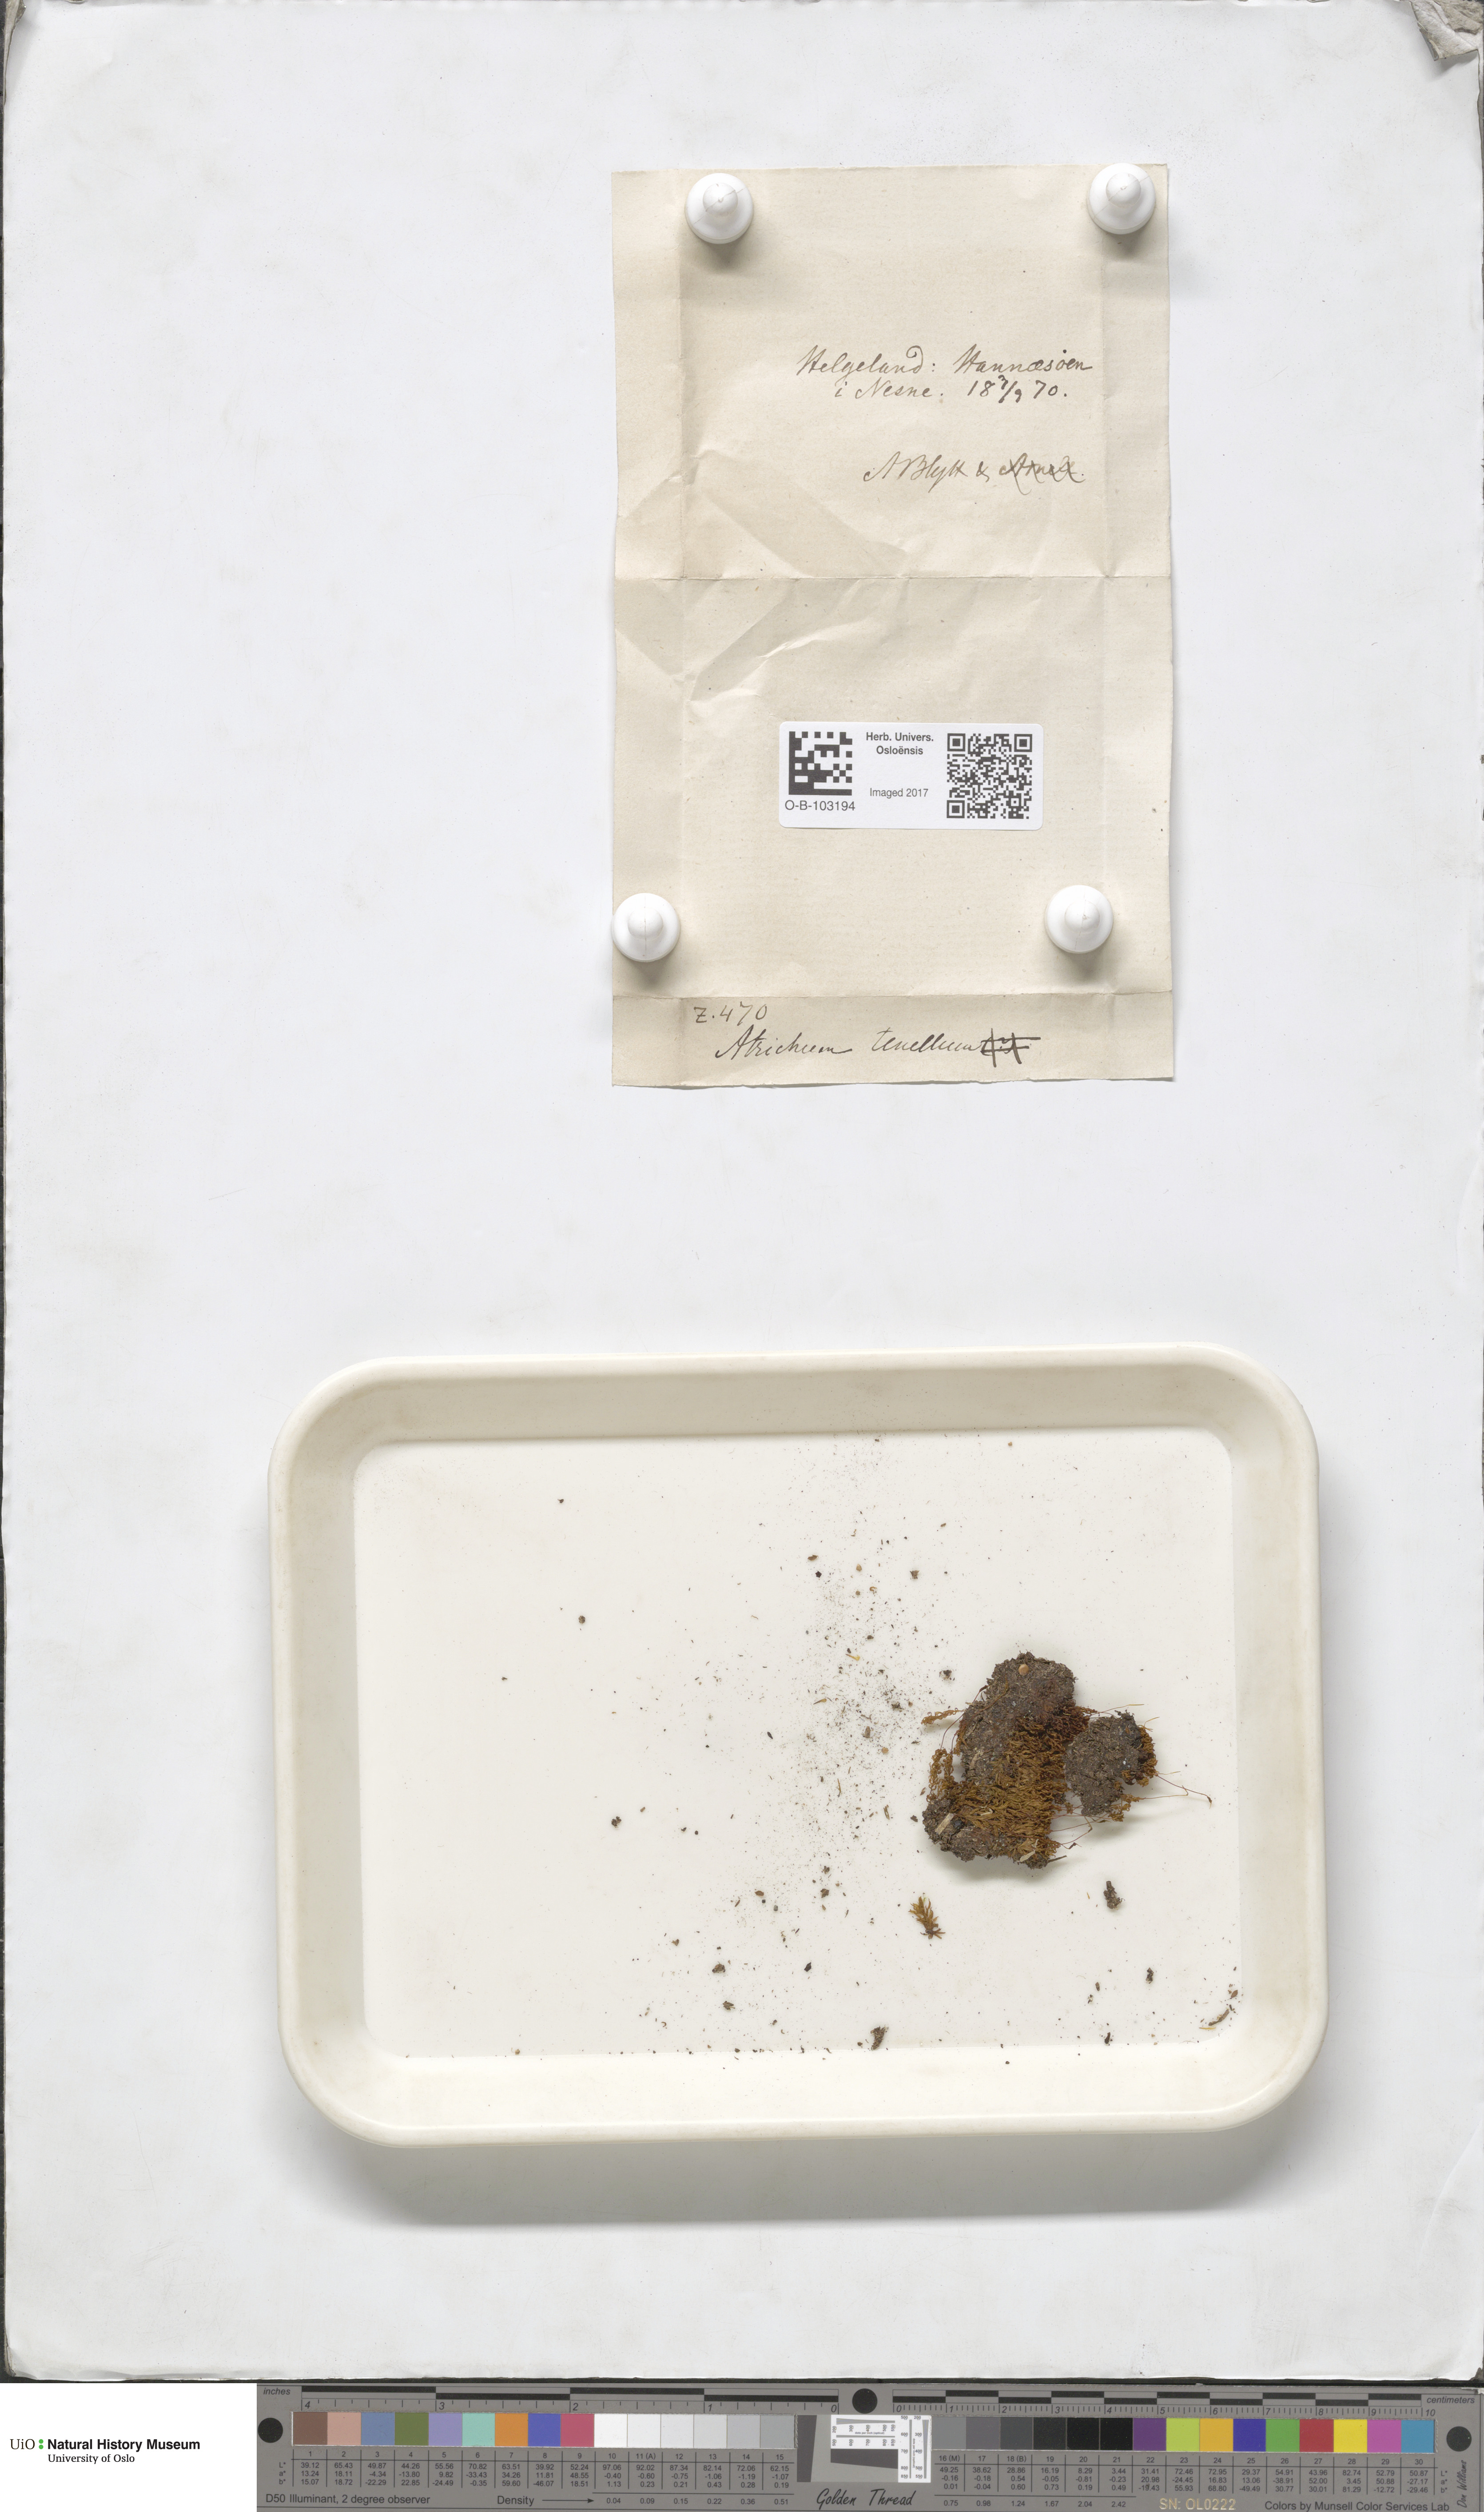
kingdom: Plantae
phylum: Bryophyta
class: Polytrichopsida
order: Polytrichales
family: Polytrichaceae
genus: Atrichum
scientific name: Atrichum tenellum
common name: Slender smoothcap moss
